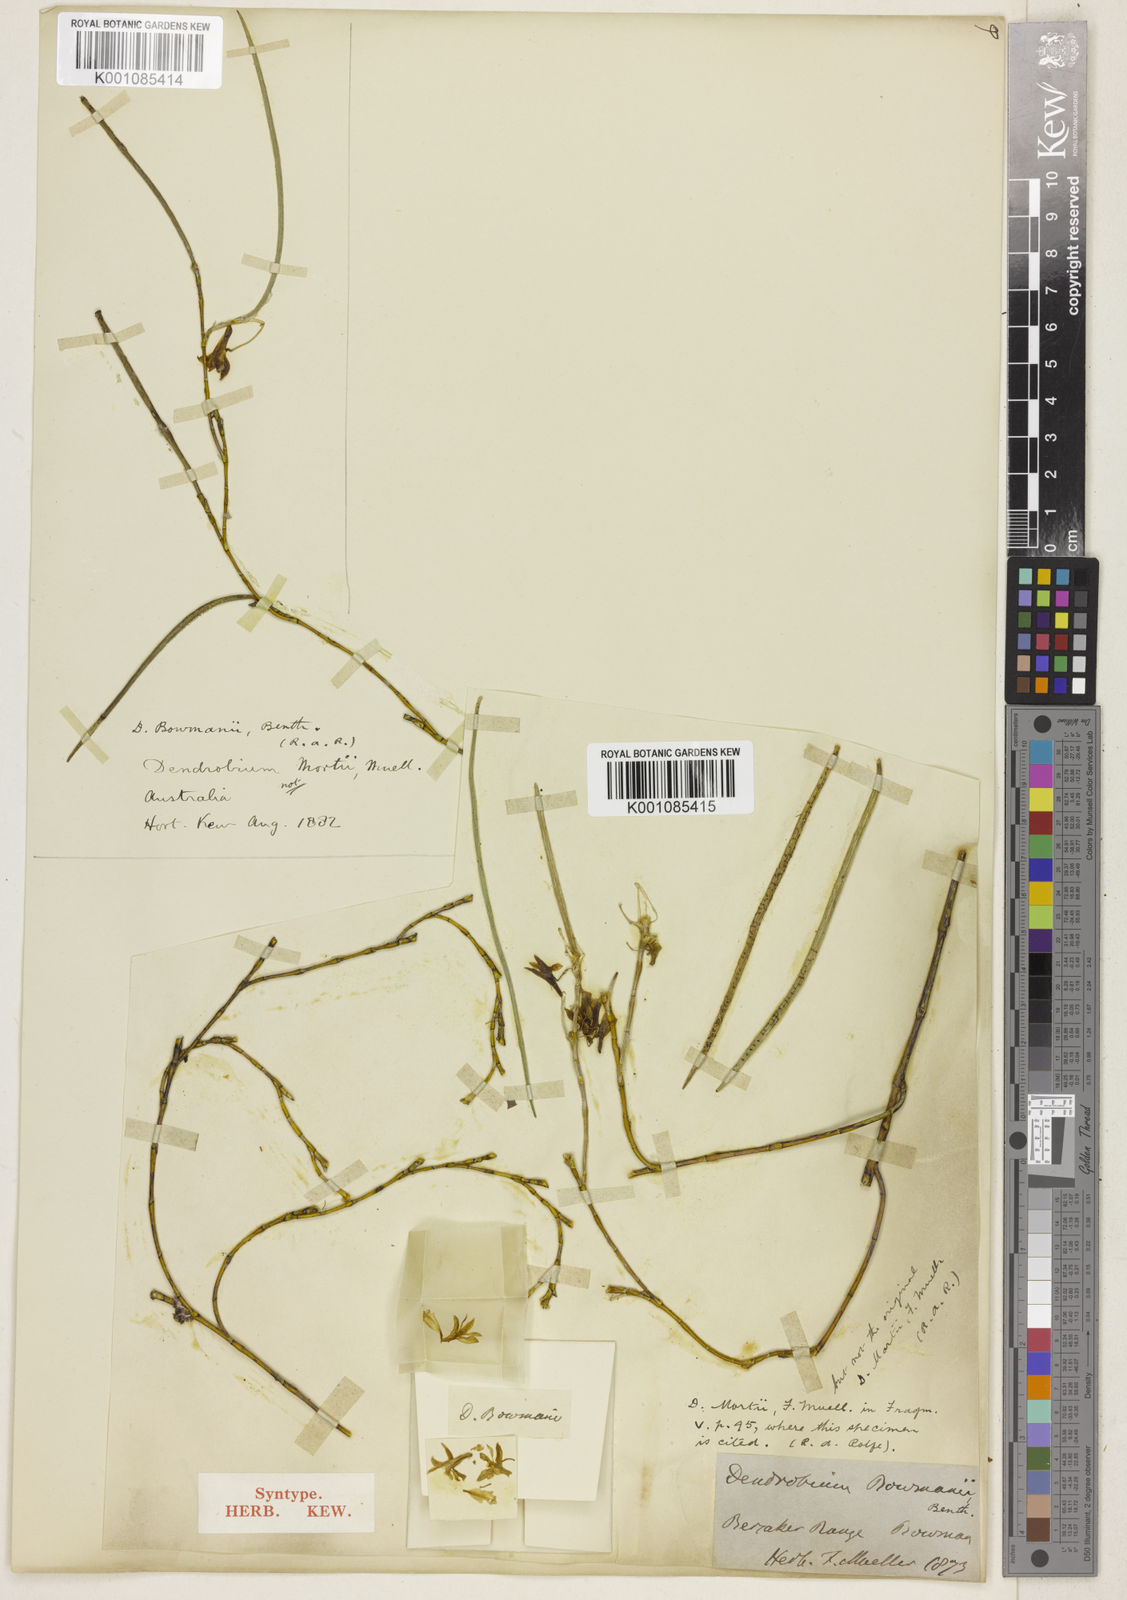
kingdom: Plantae
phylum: Tracheophyta
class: Liliopsida
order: Asparagales
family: Orchidaceae
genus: Dendrobium
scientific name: Dendrobium bowmanii
